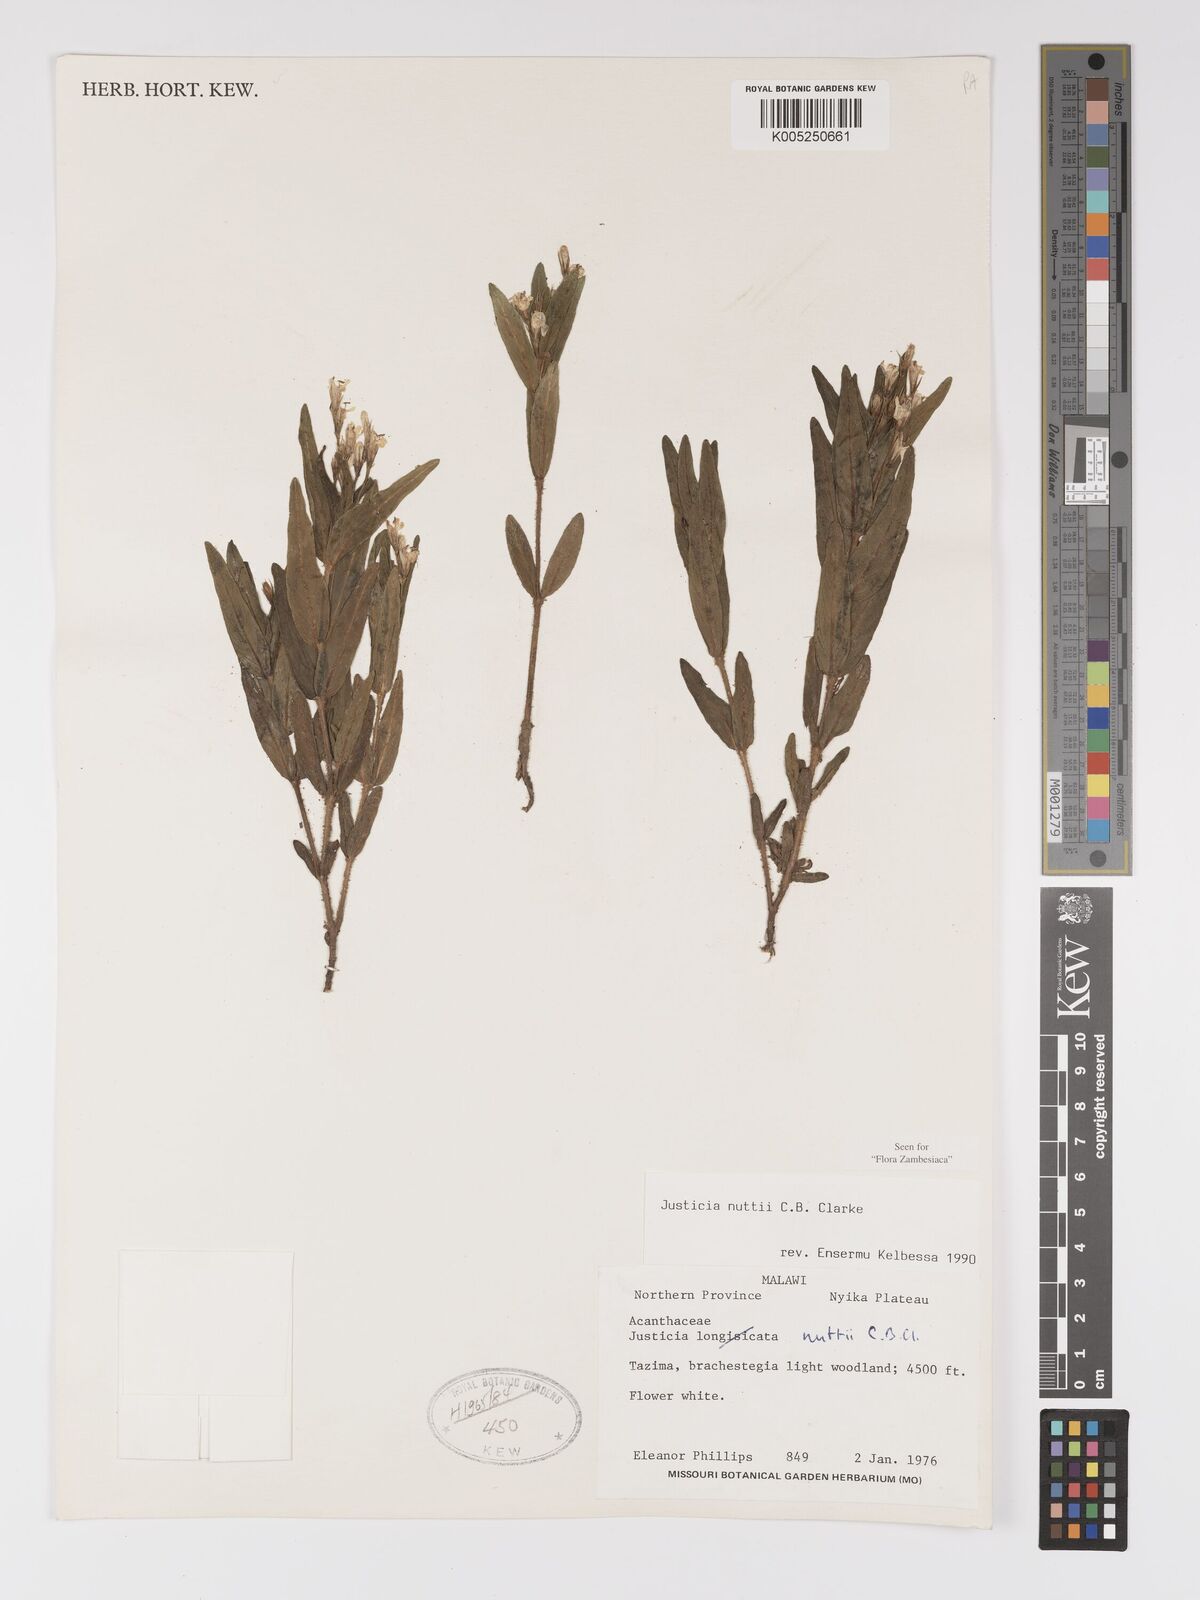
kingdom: Plantae
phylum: Tracheophyta
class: Magnoliopsida
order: Lamiales
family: Acanthaceae
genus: Justicia
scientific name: Justicia nuttii
